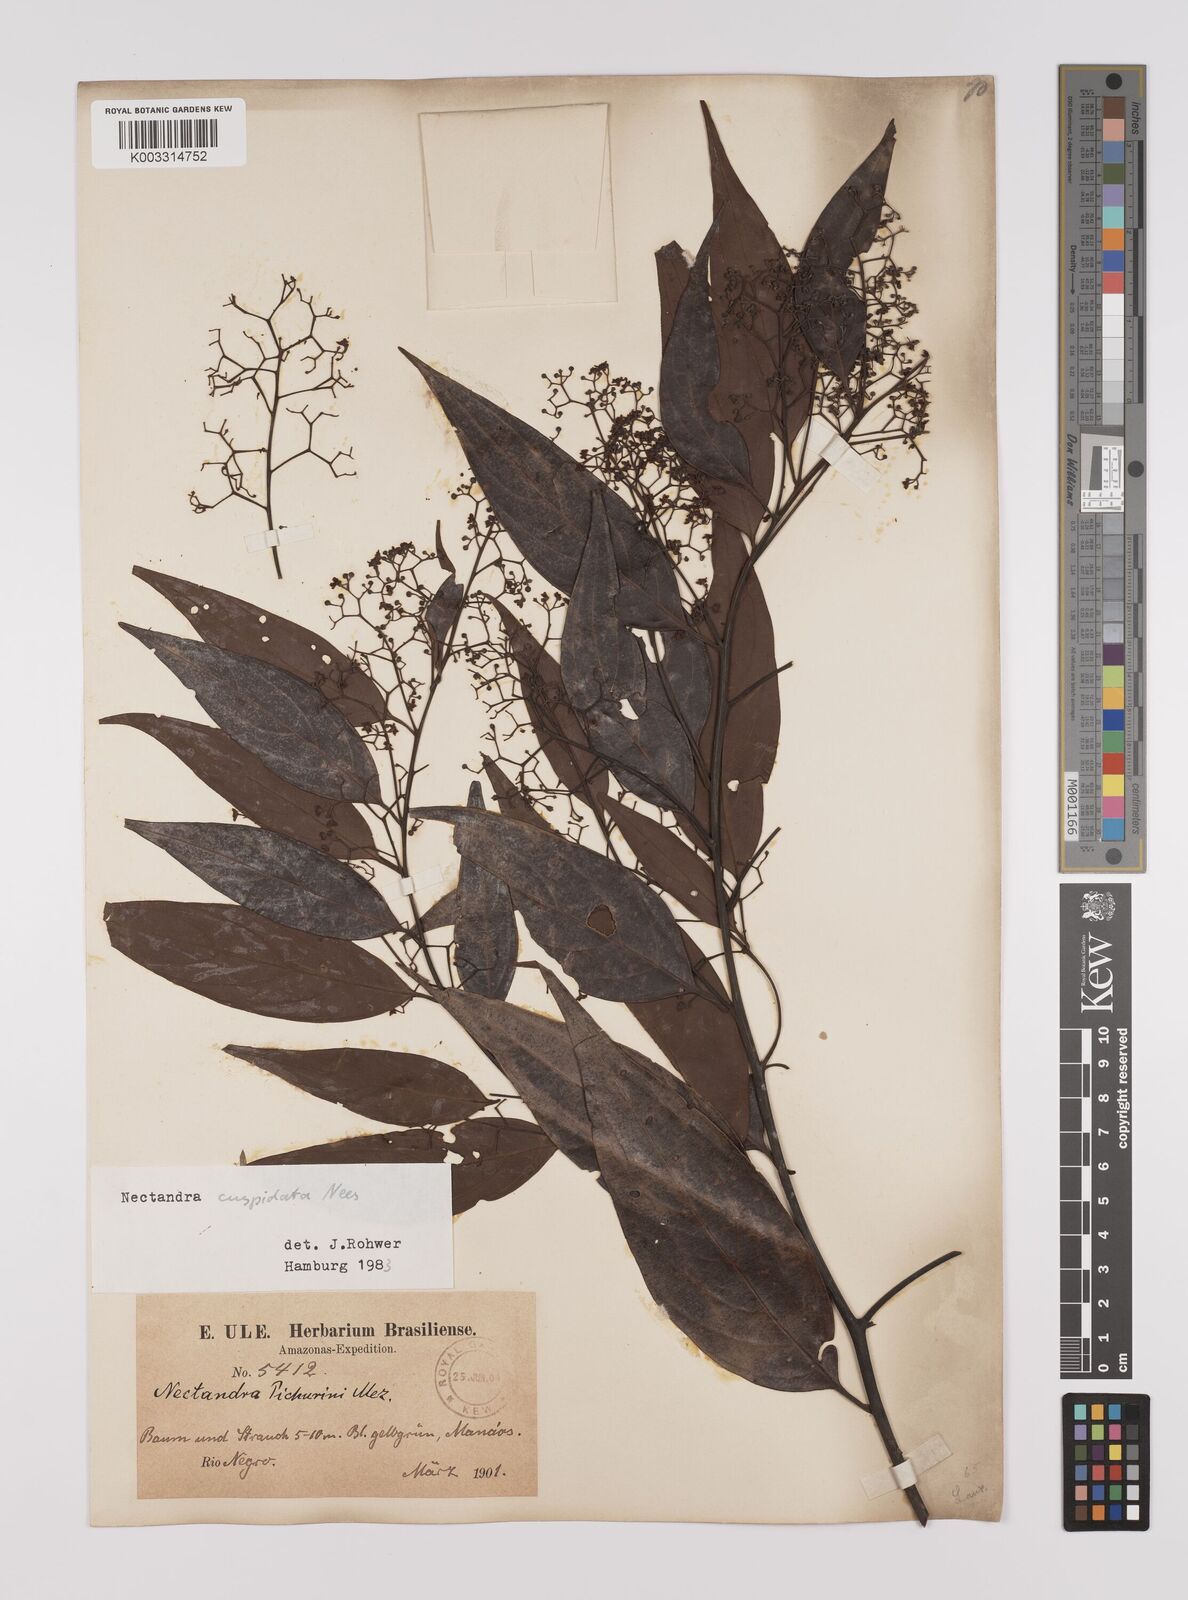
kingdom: Plantae
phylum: Tracheophyta
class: Magnoliopsida
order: Laurales
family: Lauraceae
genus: Nectandra
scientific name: Nectandra cuspidata
